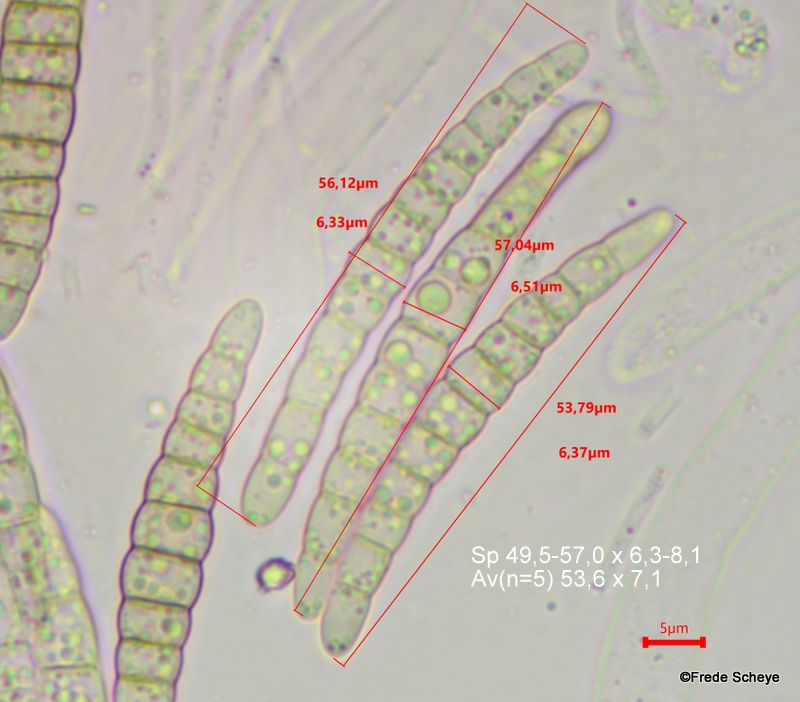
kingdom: Fungi
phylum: Ascomycota
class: Dothideomycetes
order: Pleosporales
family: Leptosphaeriaceae
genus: Leptosphaeria
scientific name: Leptosphaeria acuta
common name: spids kulkegle
